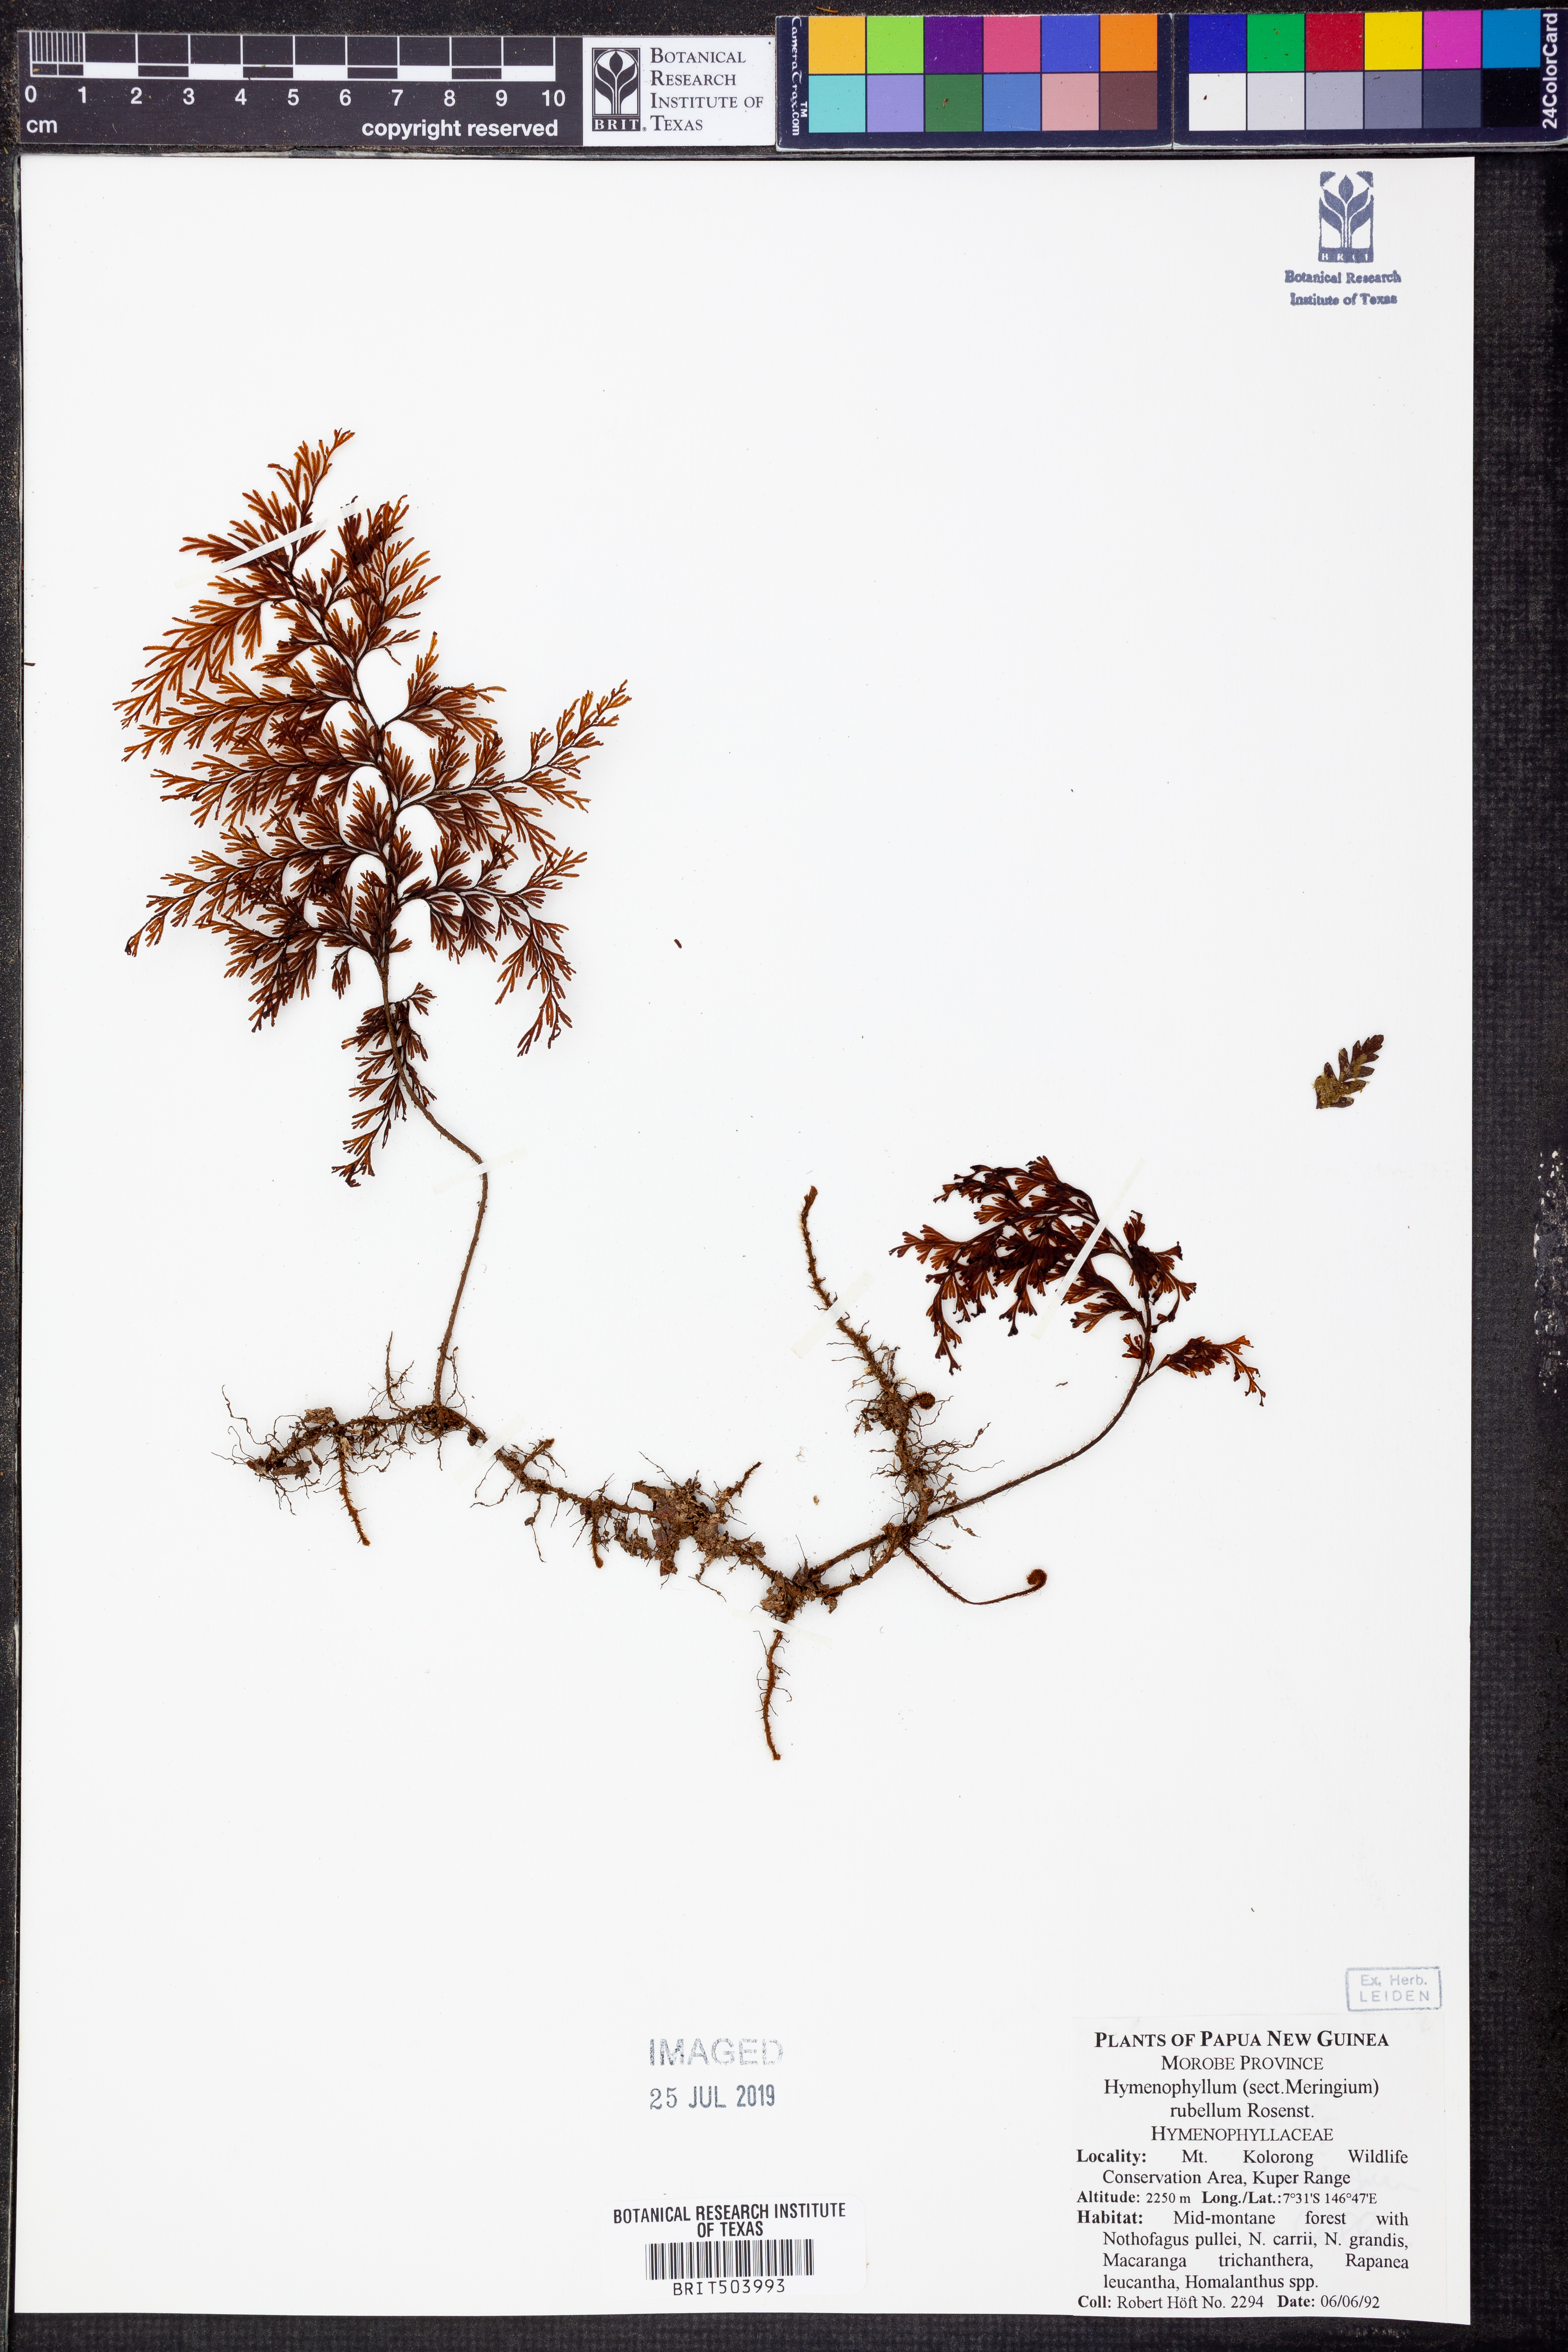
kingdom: Plantae
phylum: Tracheophyta
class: Polypodiopsida
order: Hymenophyllales
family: Hymenophyllaceae
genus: Hymenophyllum
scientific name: Hymenophyllum rubellum
